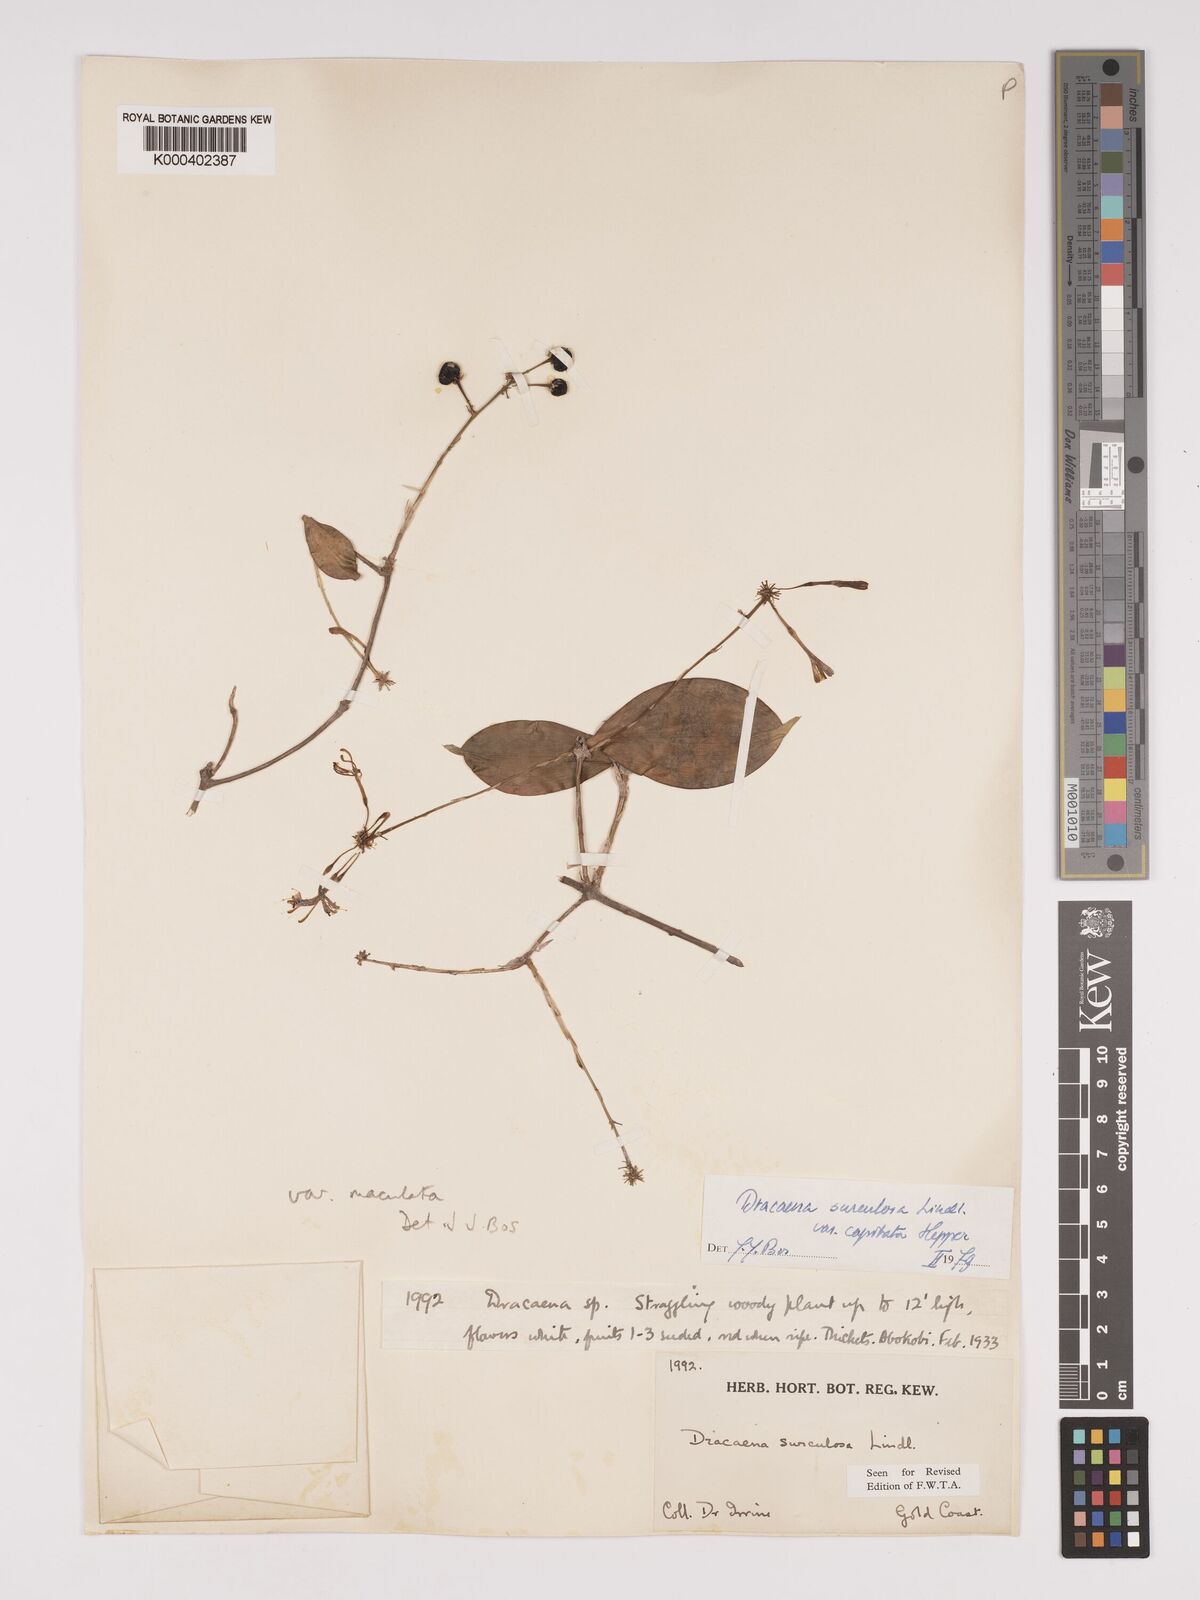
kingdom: Plantae
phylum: Tracheophyta
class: Liliopsida
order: Asparagales
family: Asparagaceae
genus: Dracaena
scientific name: Dracaena surculosa
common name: Spotted dracaena
